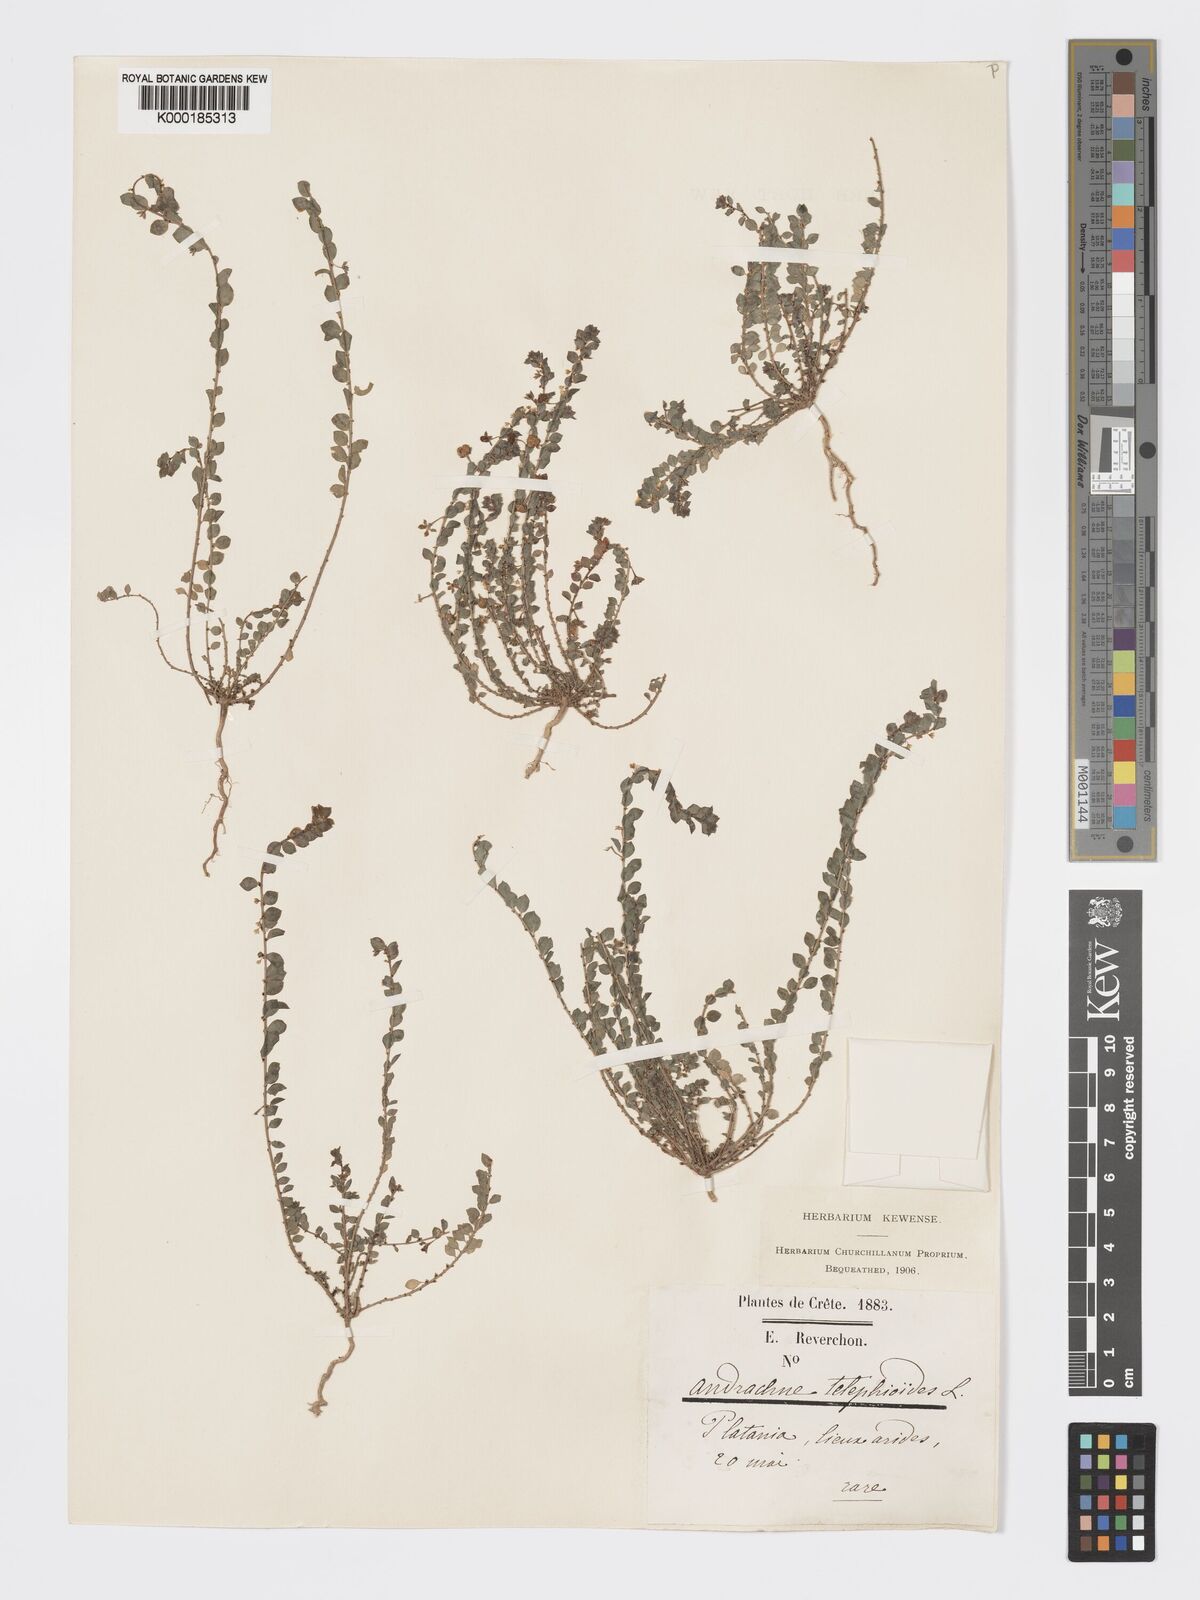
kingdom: Plantae
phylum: Tracheophyta
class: Magnoliopsida
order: Malpighiales
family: Phyllanthaceae
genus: Andrachne
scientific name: Andrachne telephioides
